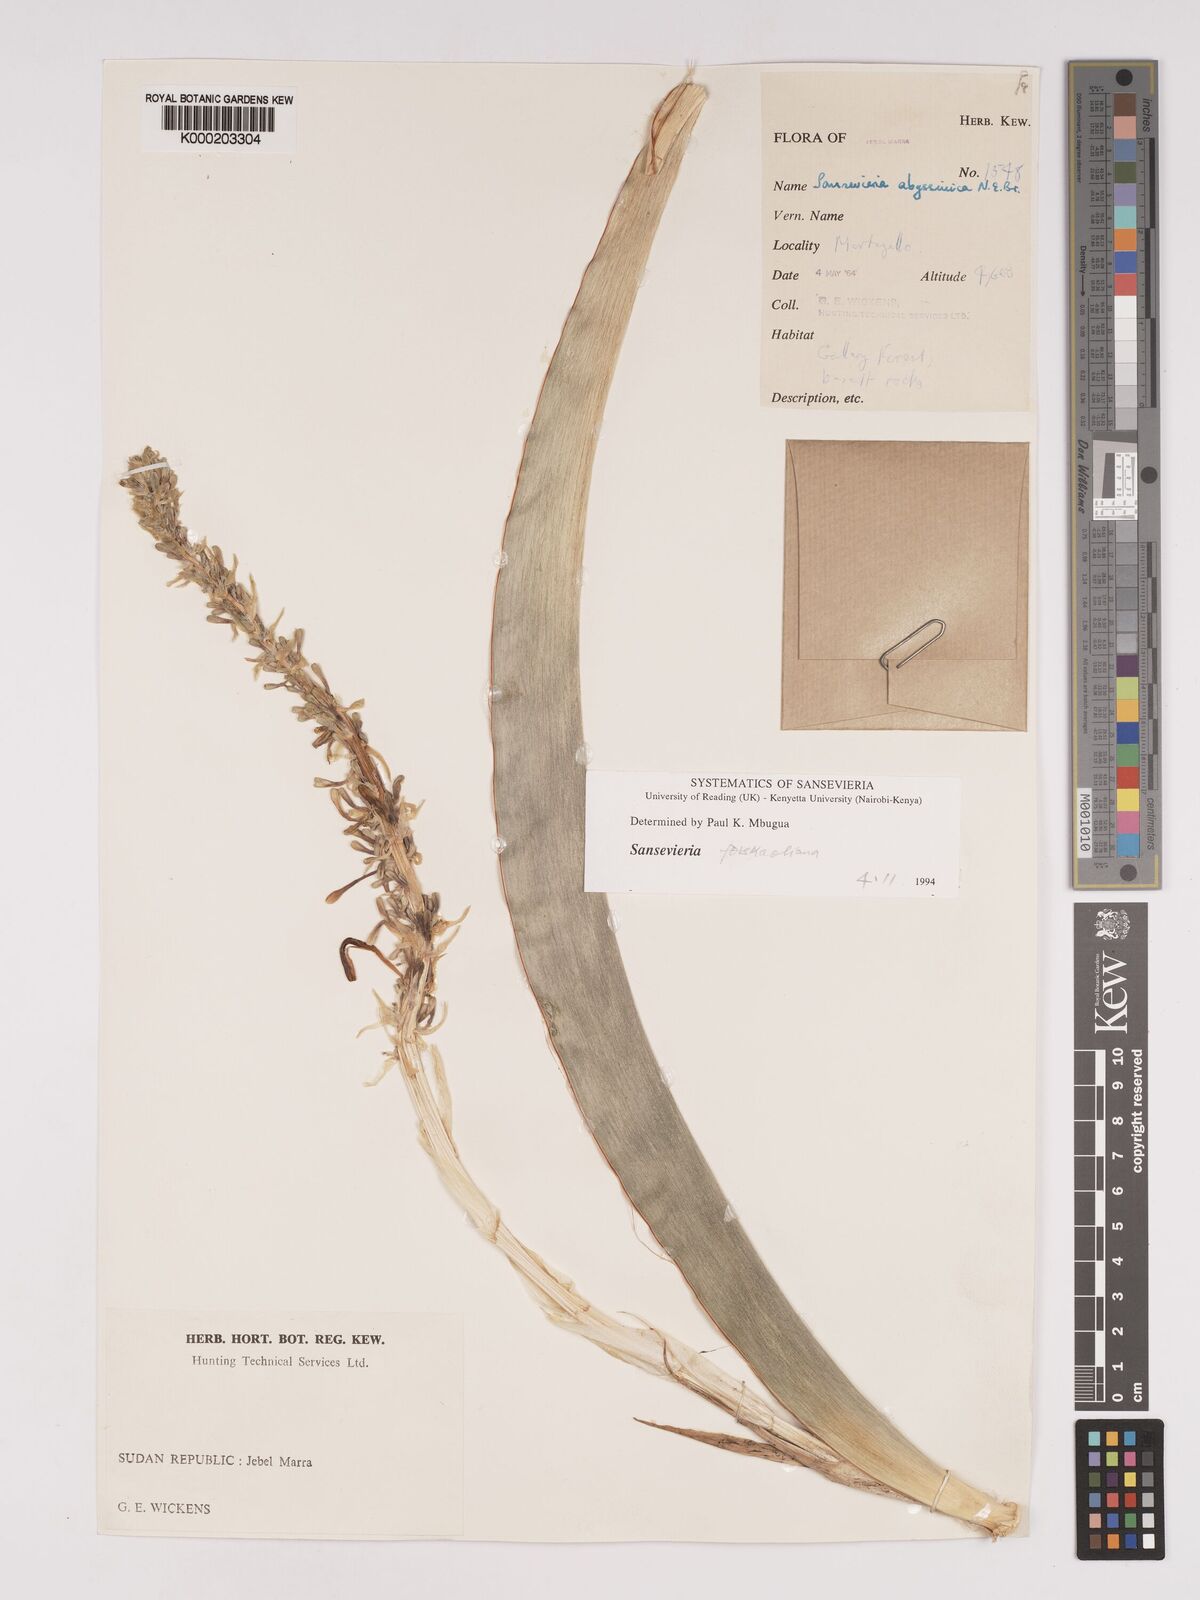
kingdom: Plantae
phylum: Tracheophyta
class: Liliopsida
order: Asparagales
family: Asparagaceae
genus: Dracaena
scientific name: Dracaena forskaliana
